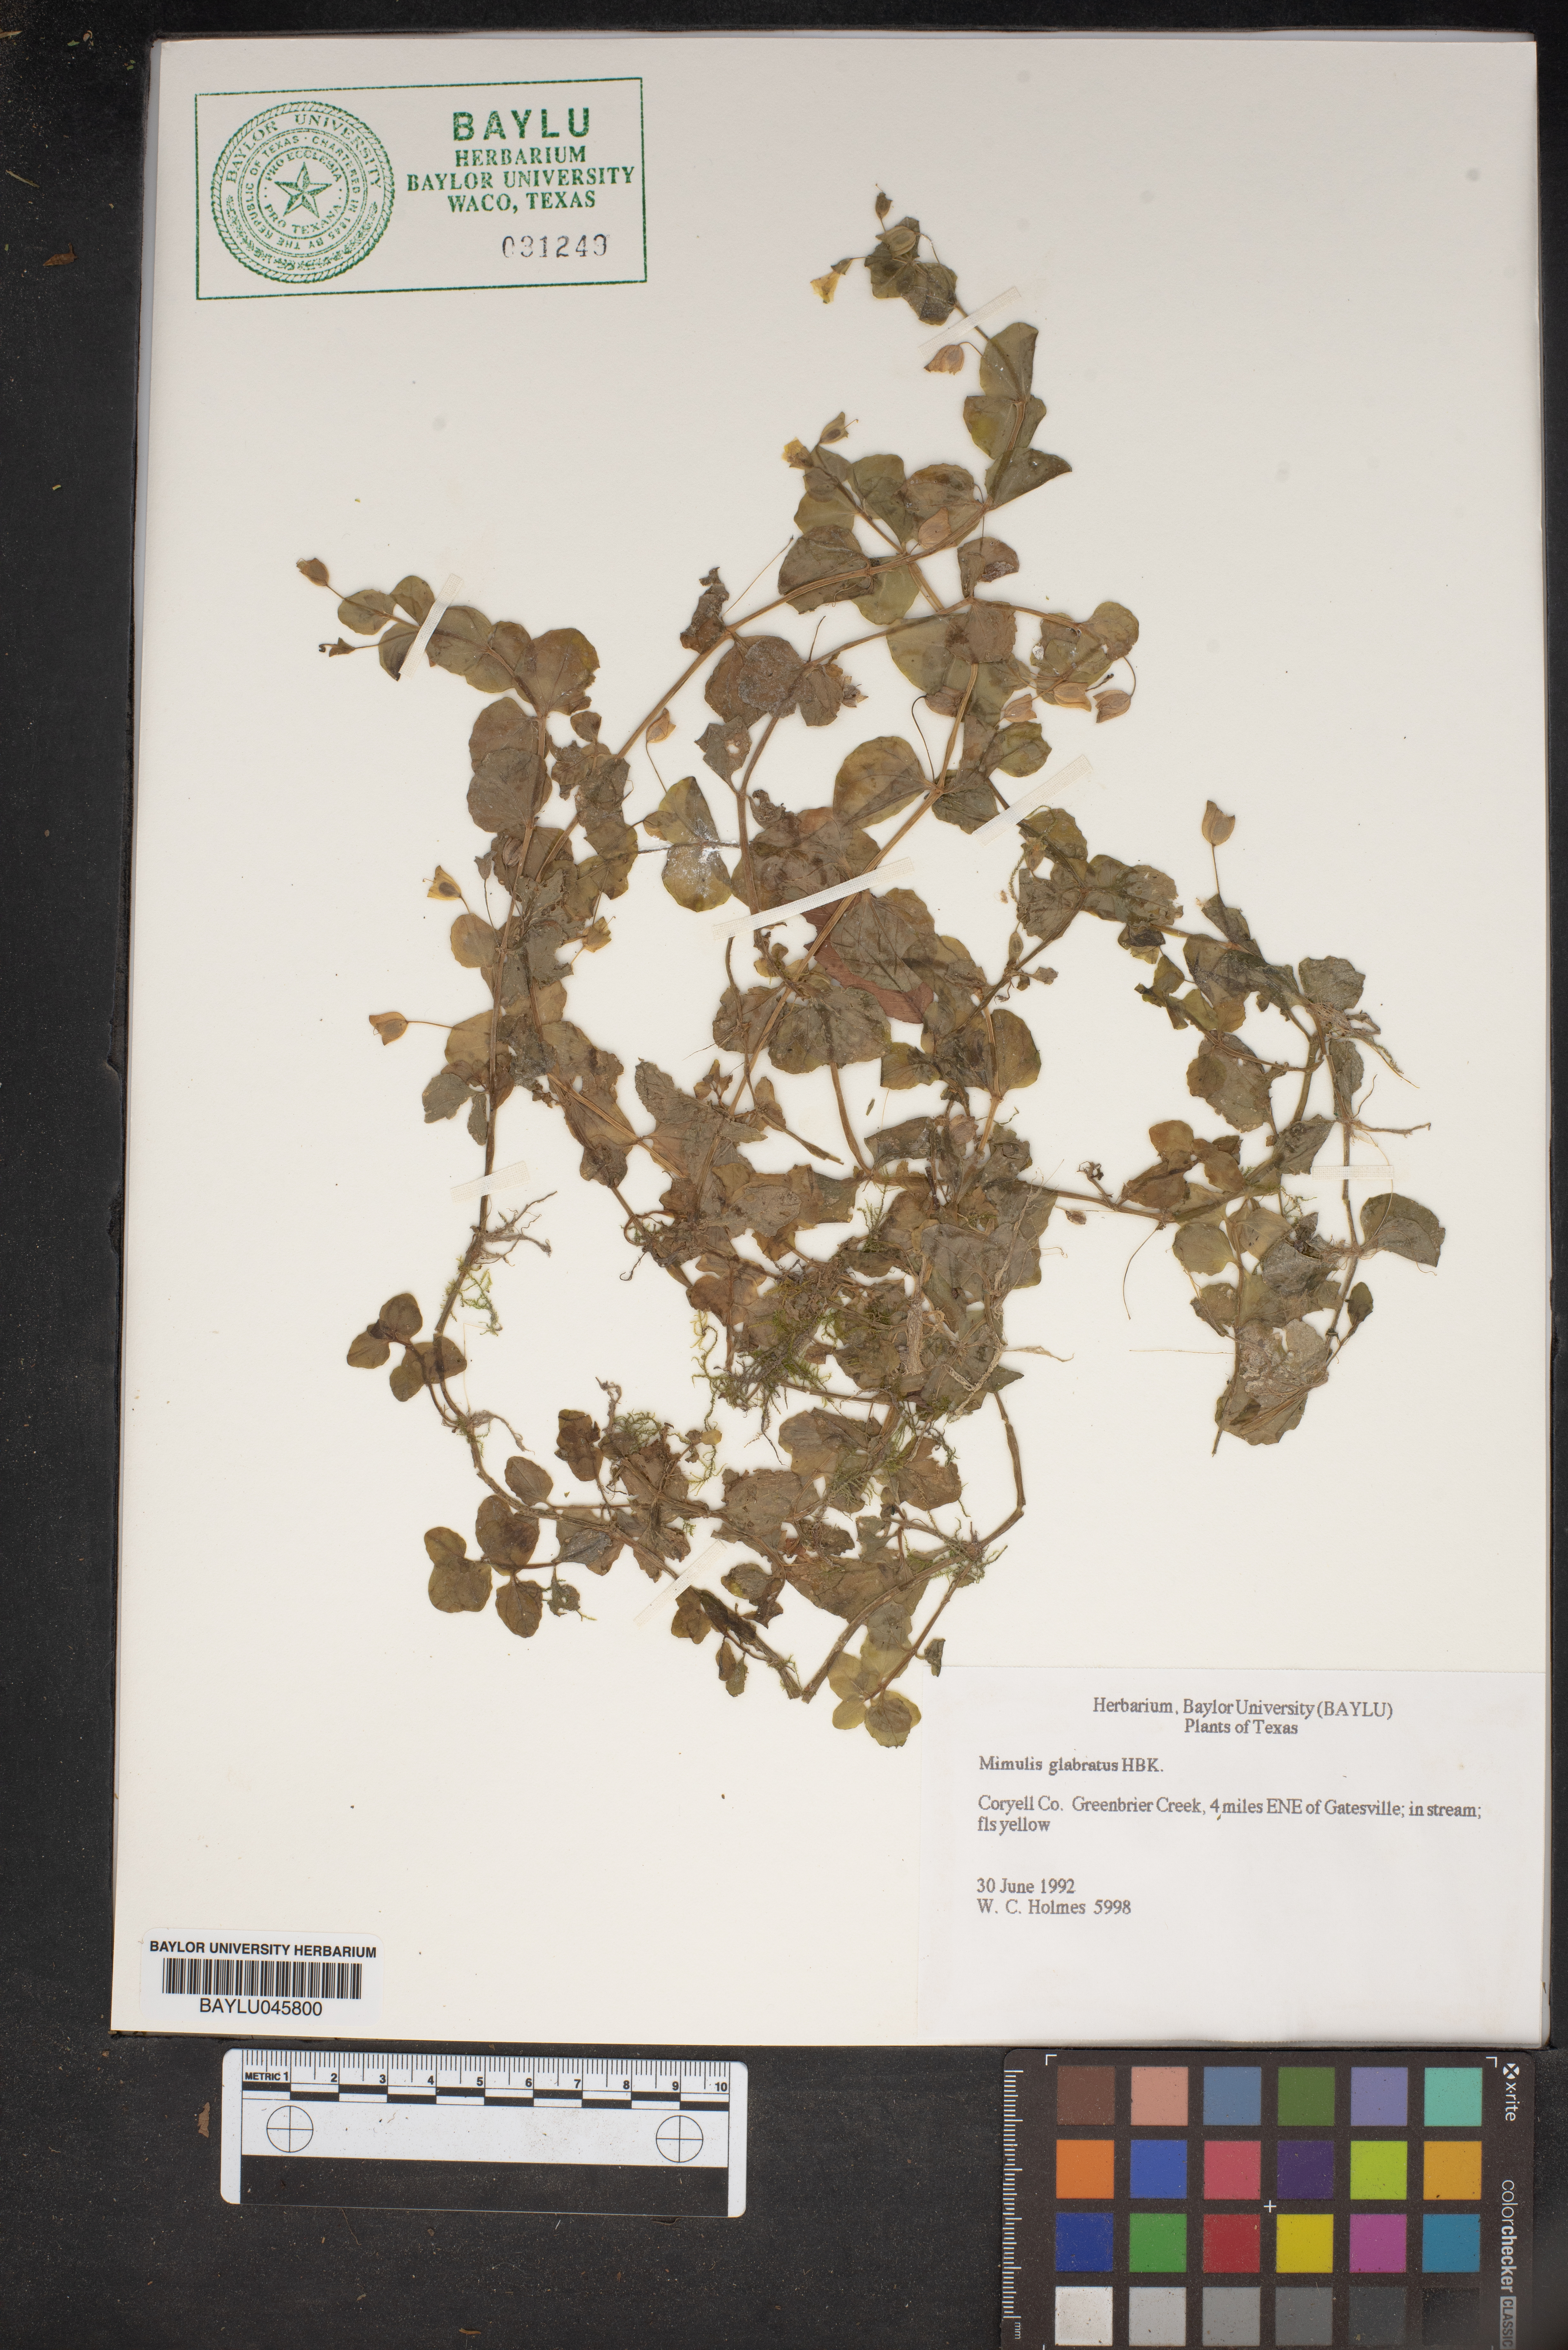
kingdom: Plantae
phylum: Tracheophyta
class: Magnoliopsida
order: Lamiales
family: Phrymaceae
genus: Erythranthe
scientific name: Erythranthe glabrata
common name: Round-leaved monkeyflower
